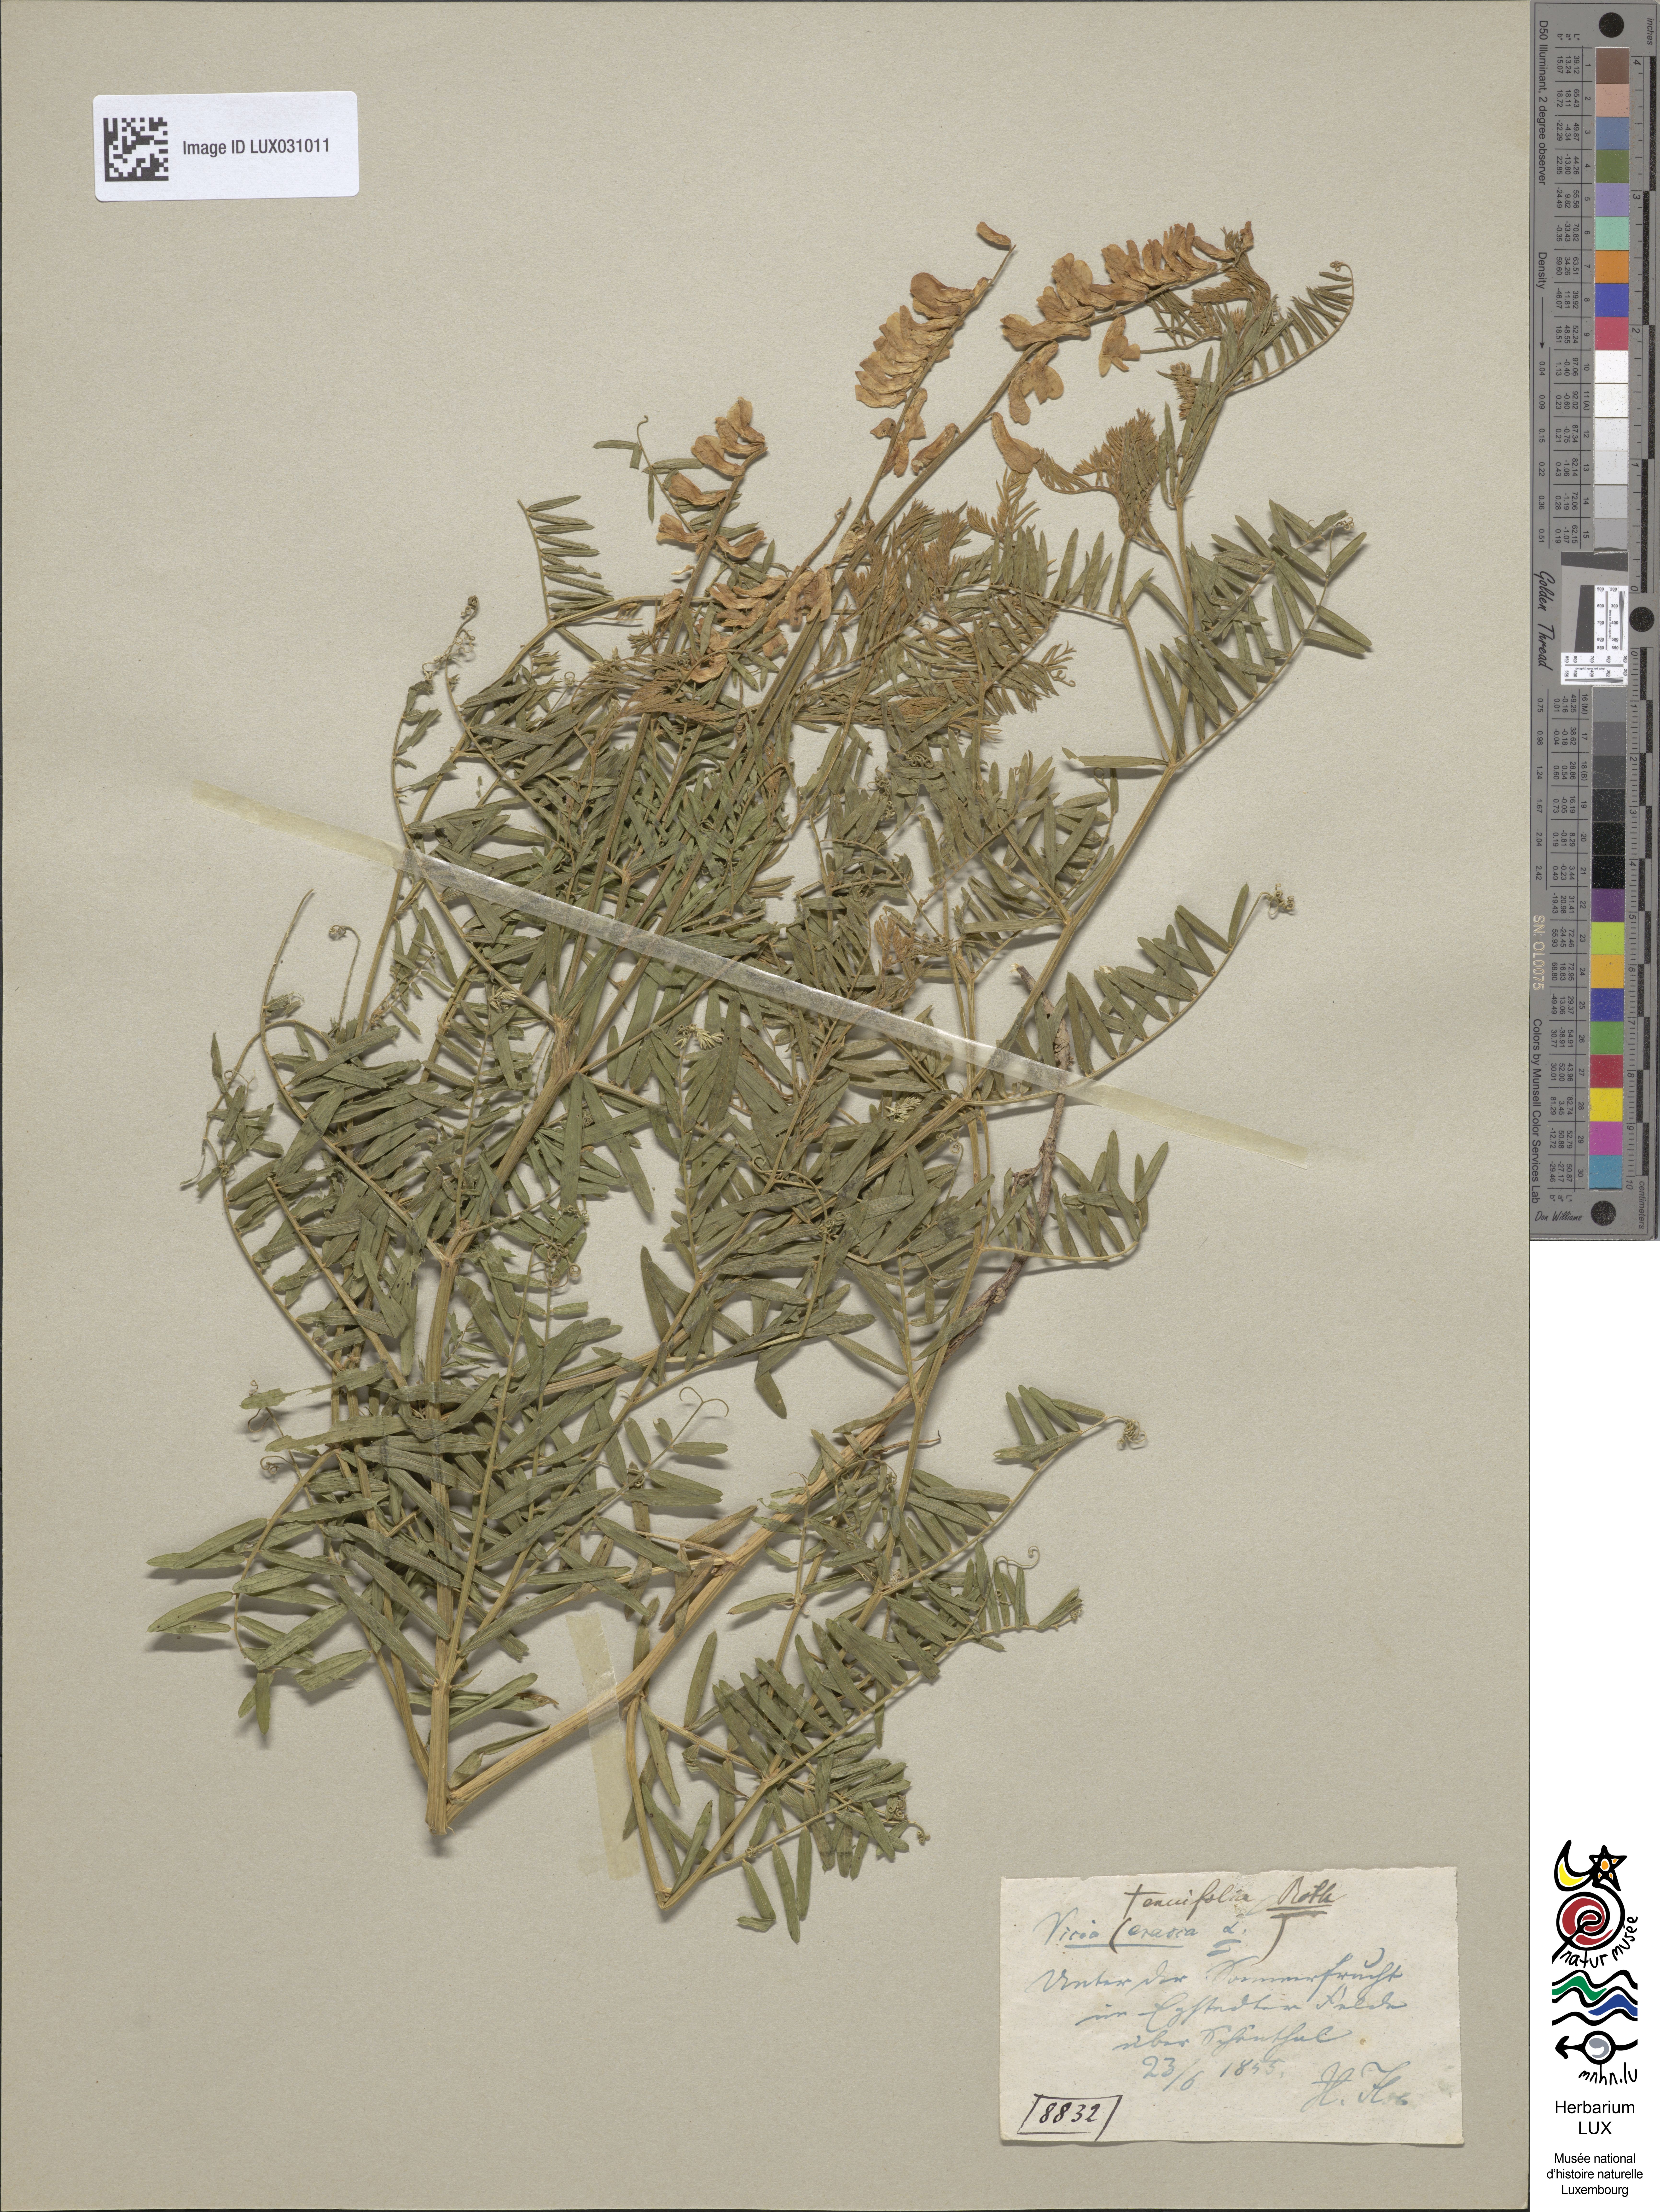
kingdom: Plantae
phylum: Tracheophyta
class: Magnoliopsida
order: Fabales
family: Fabaceae
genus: Vicia
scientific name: Vicia tenuifolia
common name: Fine-leaved vetch
